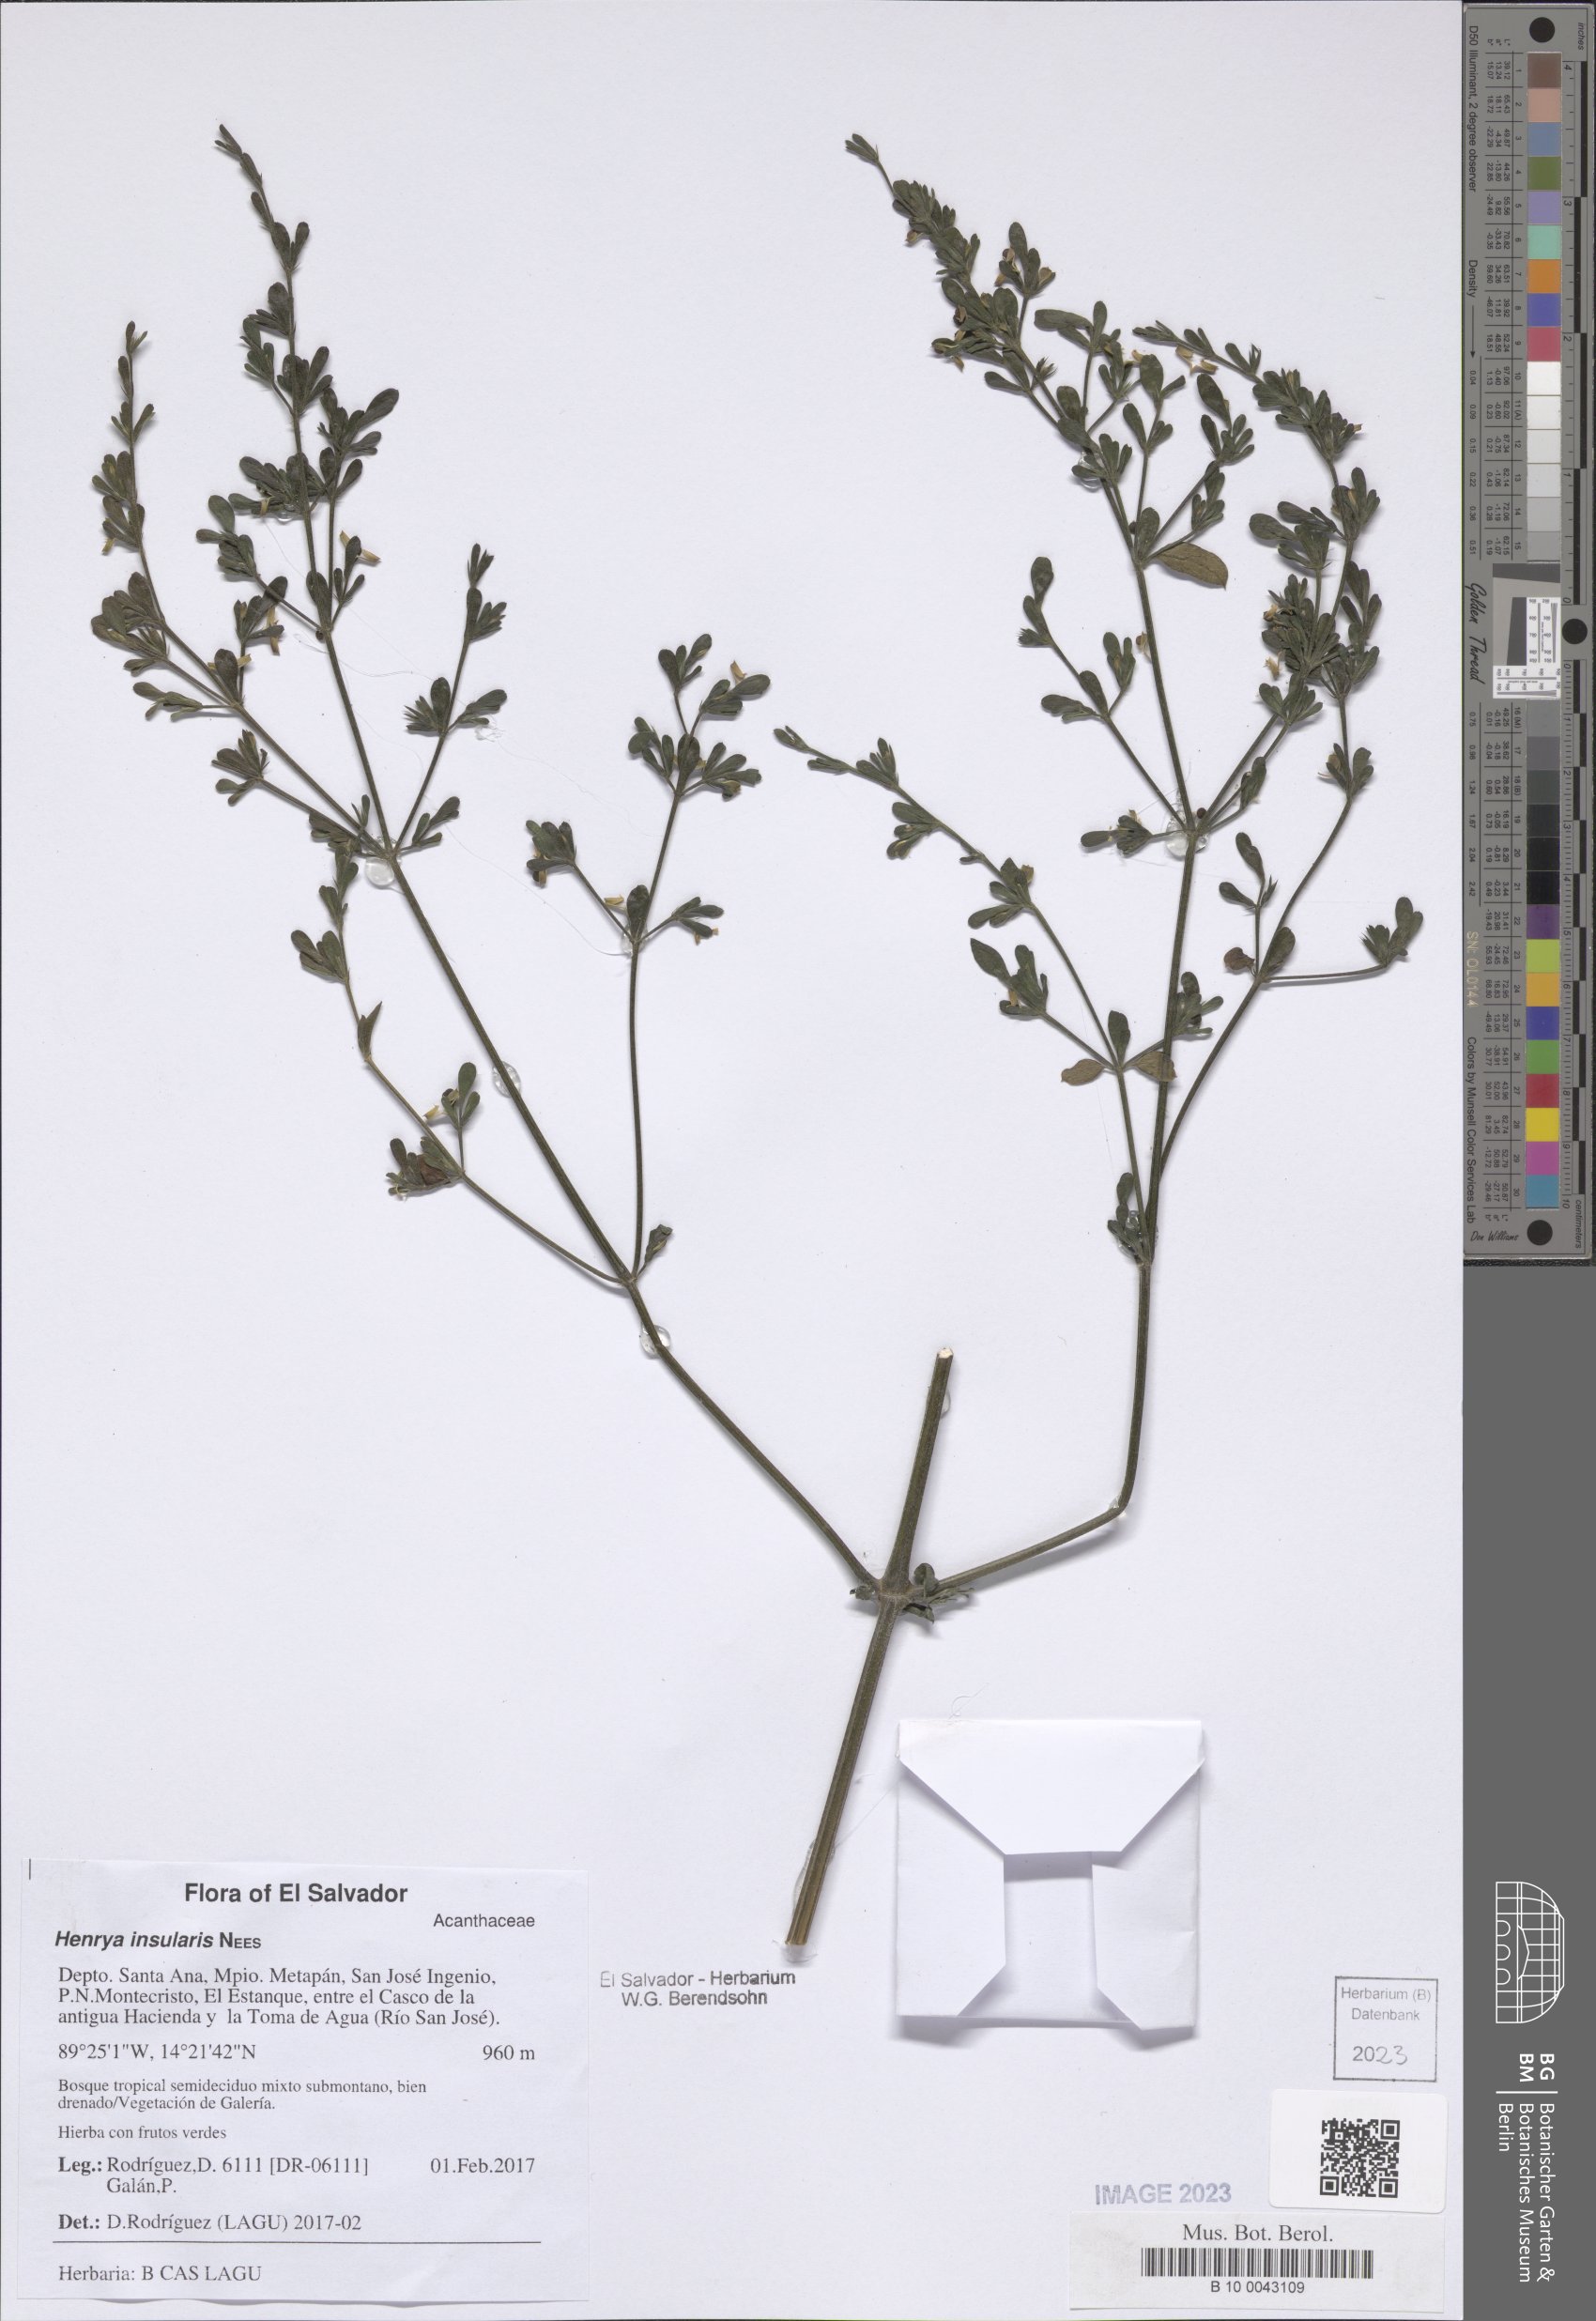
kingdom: Plantae
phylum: Tracheophyta
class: Magnoliopsida
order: Lamiales
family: Acanthaceae
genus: Henrya
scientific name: Henrya insularis
